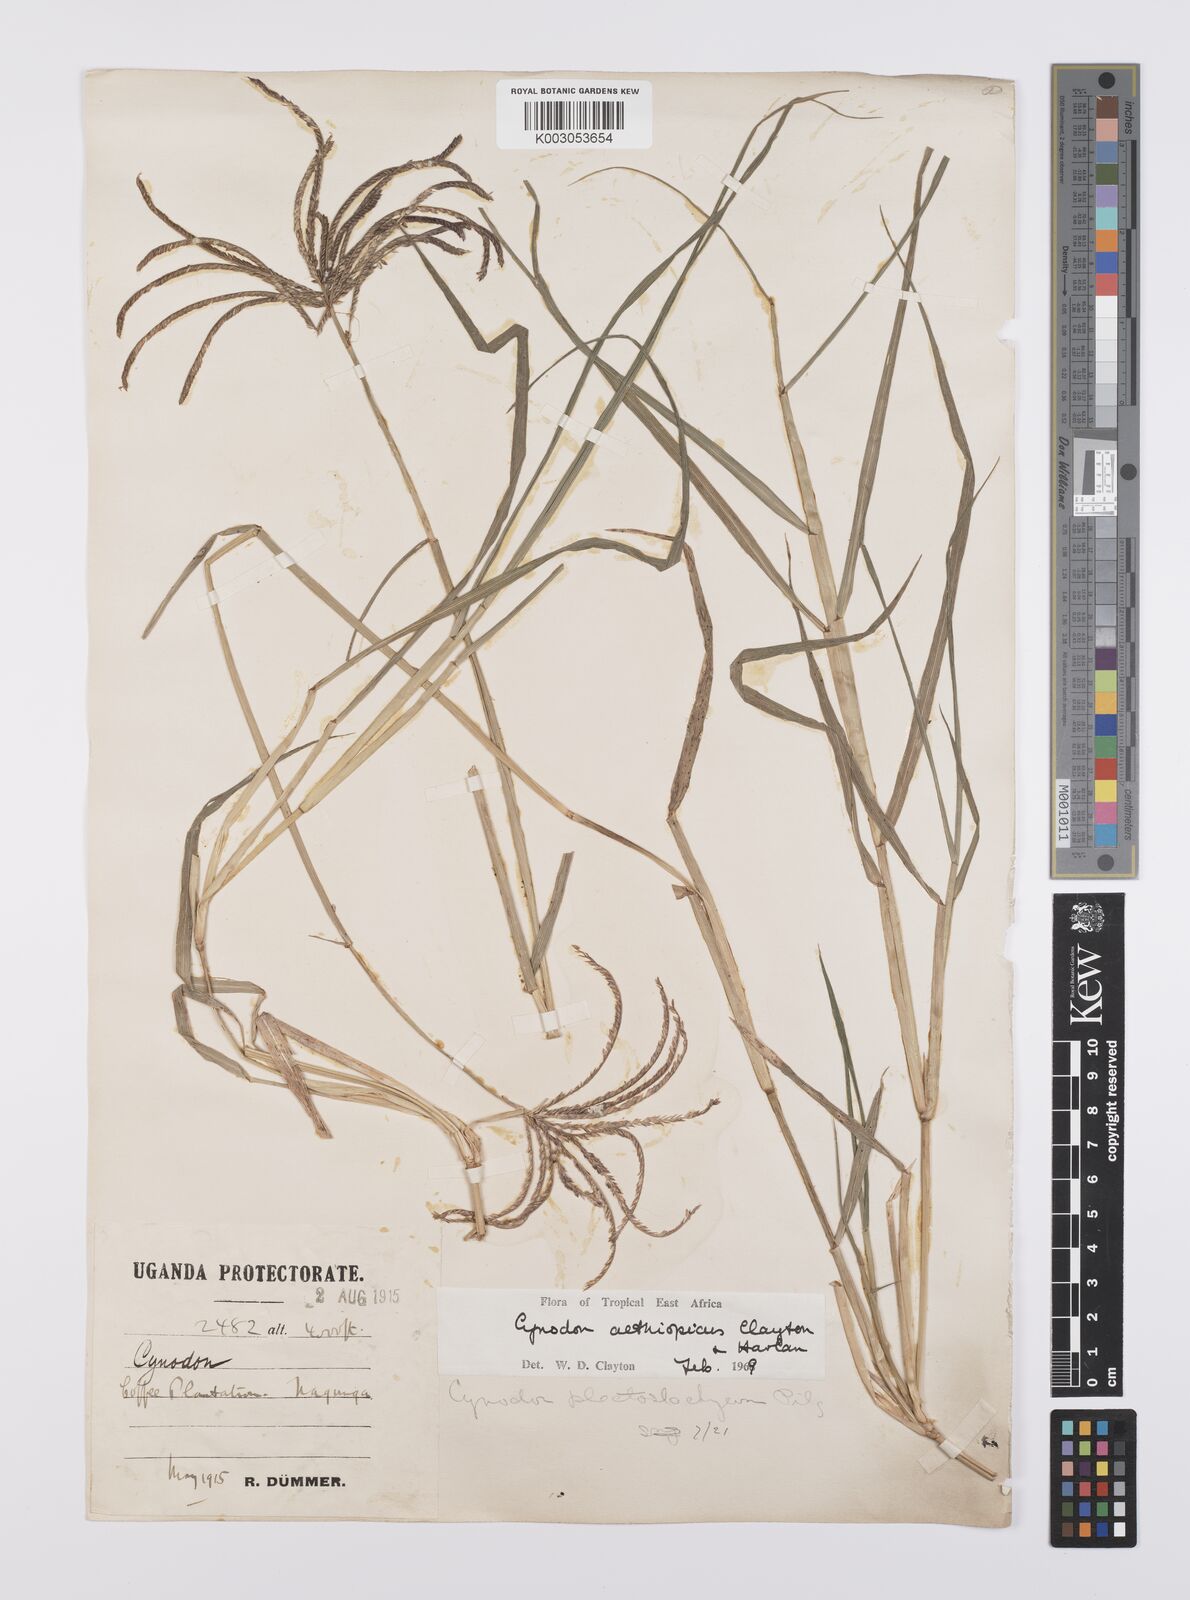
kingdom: Plantae
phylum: Tracheophyta
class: Liliopsida
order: Poales
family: Poaceae
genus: Cynodon
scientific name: Cynodon aethiopicus
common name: Ethiopian dogstooth grass
